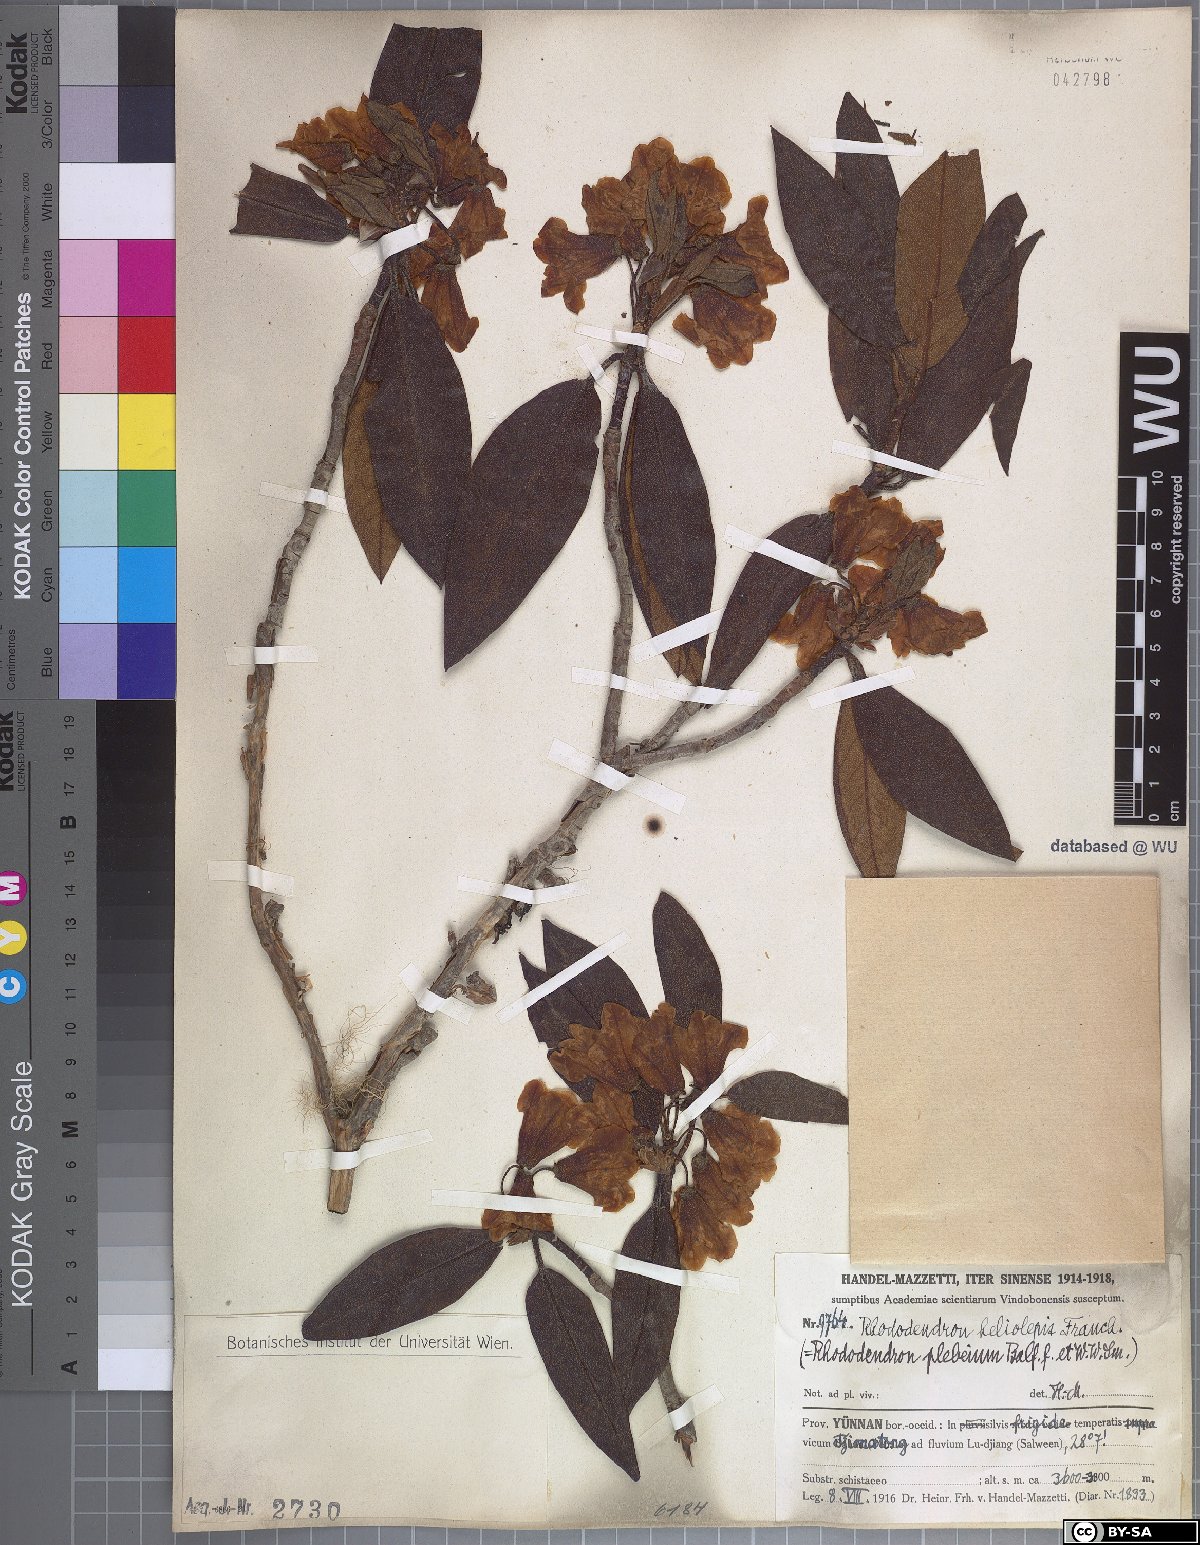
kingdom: Plantae
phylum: Tracheophyta
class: Magnoliopsida
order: Ericales
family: Ericaceae
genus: Rhododendron
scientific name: Rhododendron heliolepis
